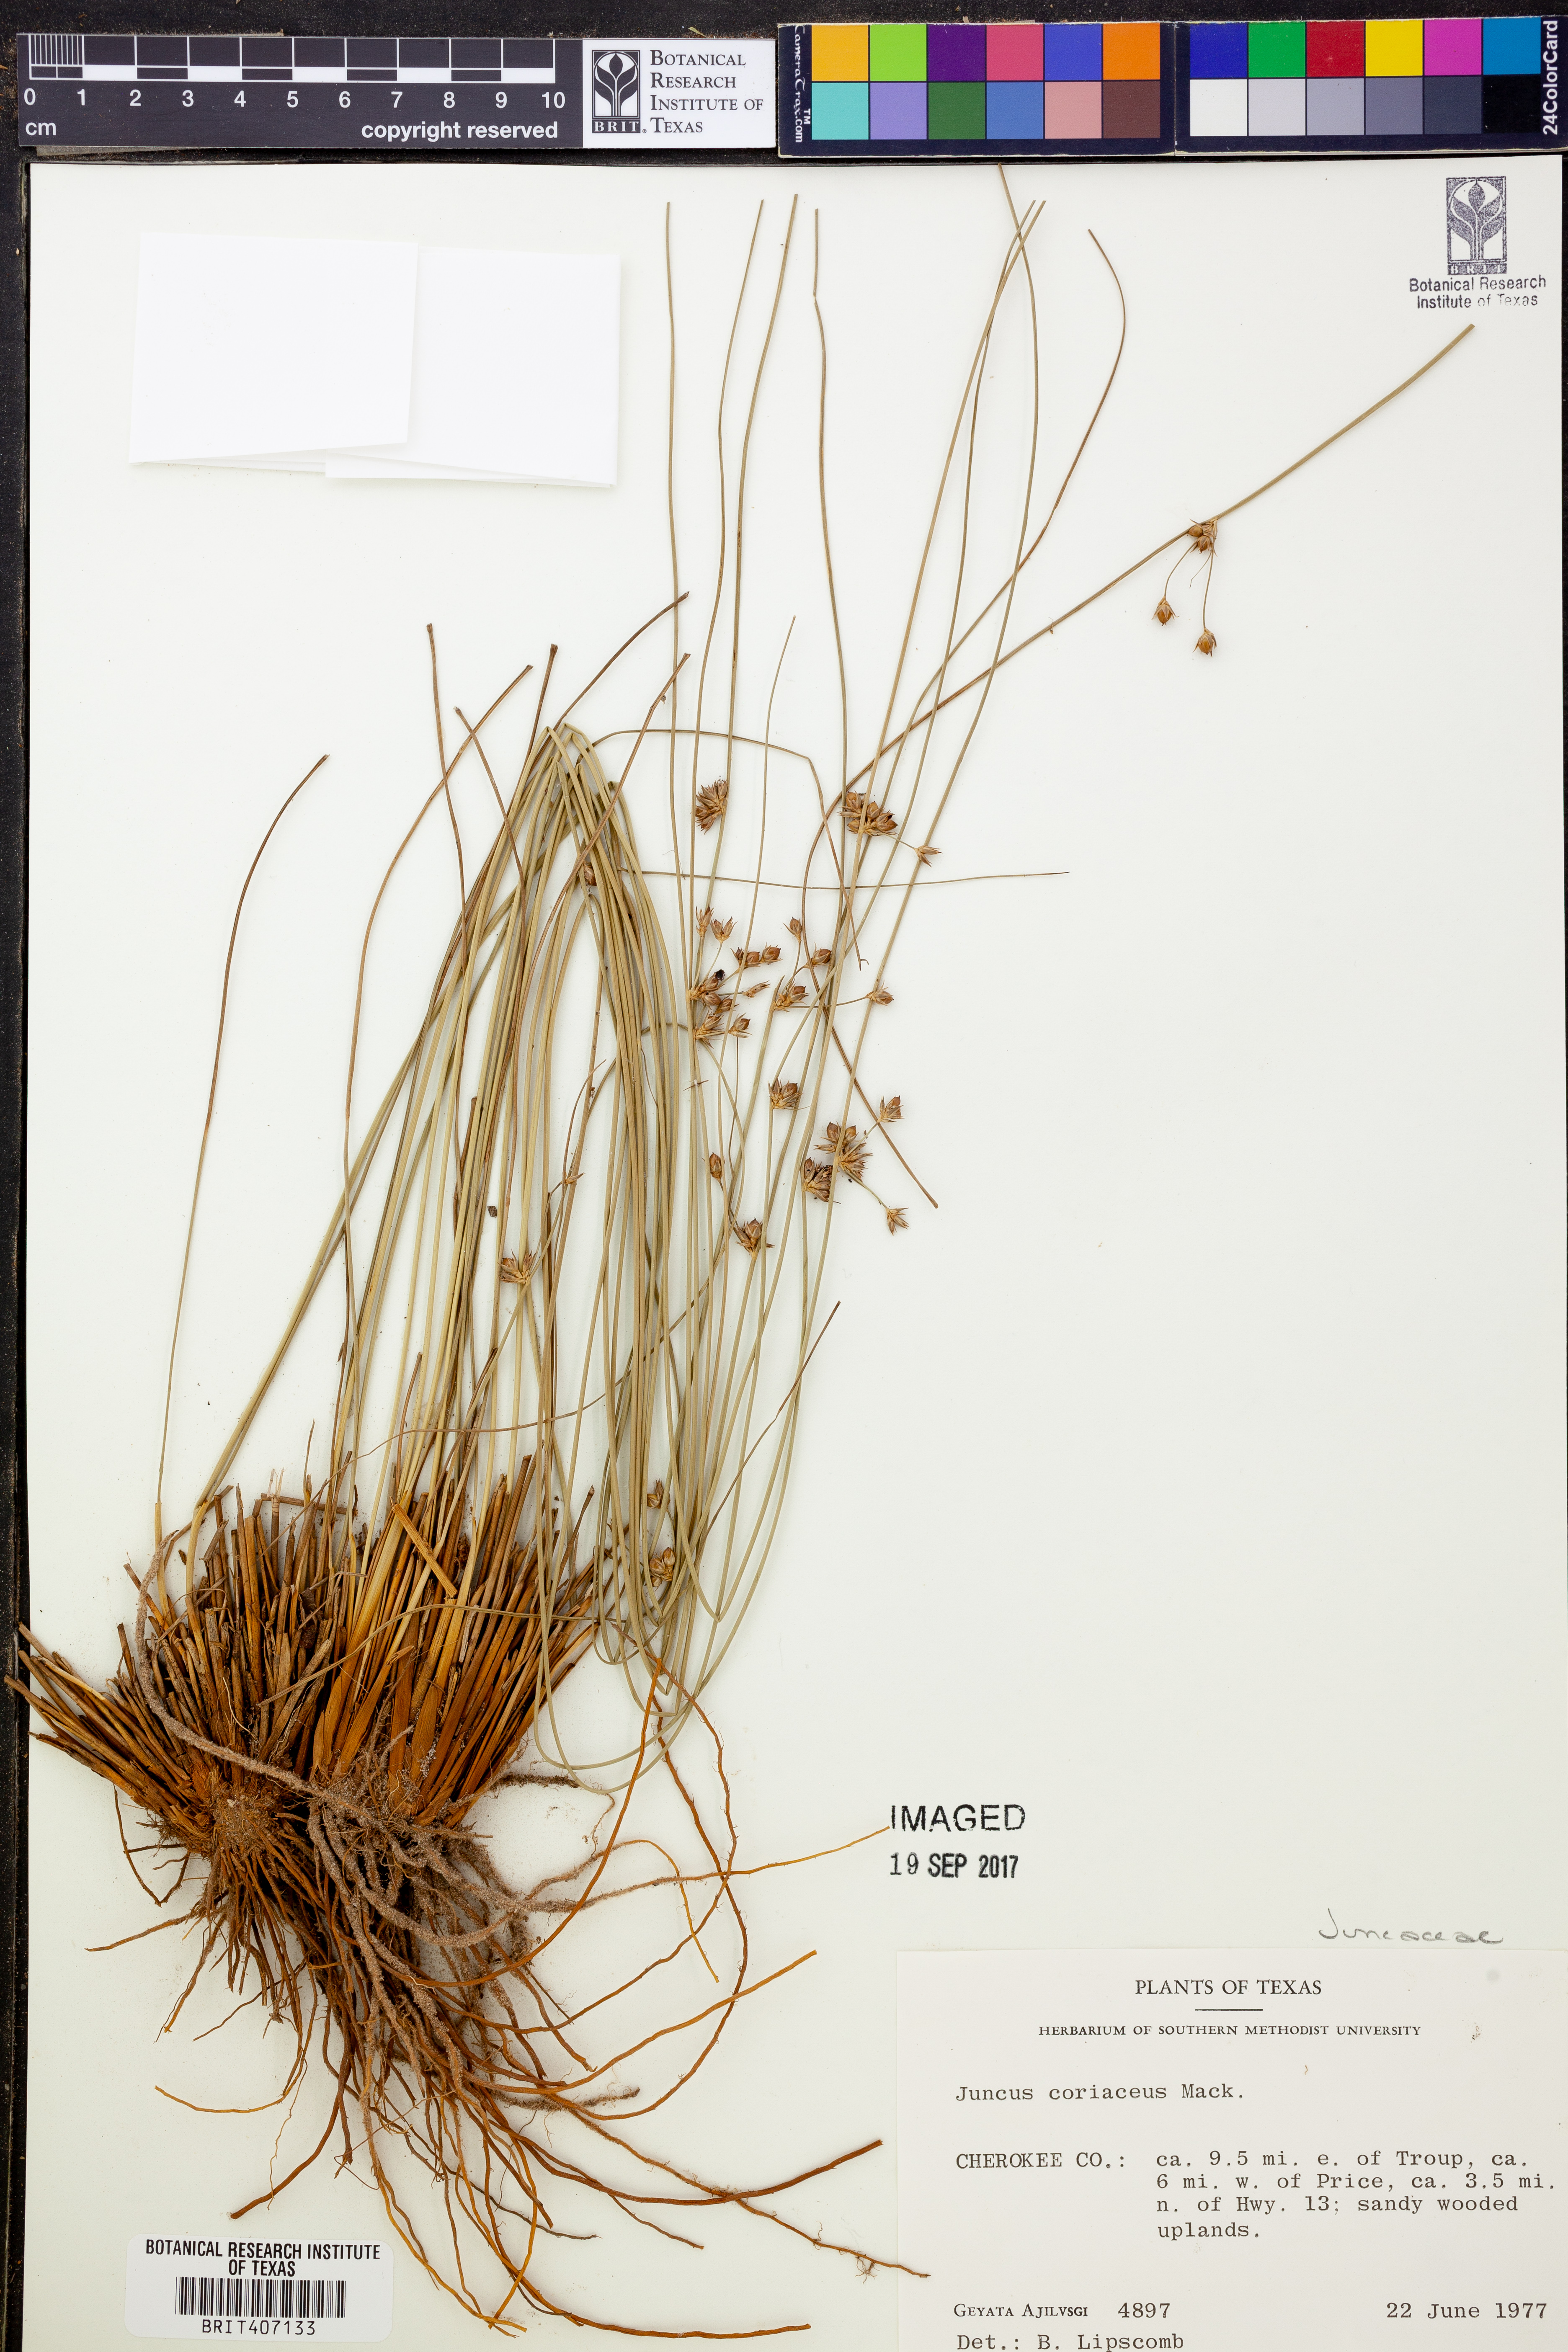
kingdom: Plantae
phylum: Tracheophyta
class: Liliopsida
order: Poales
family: Juncaceae
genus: Juncus
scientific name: Juncus coriaceus
